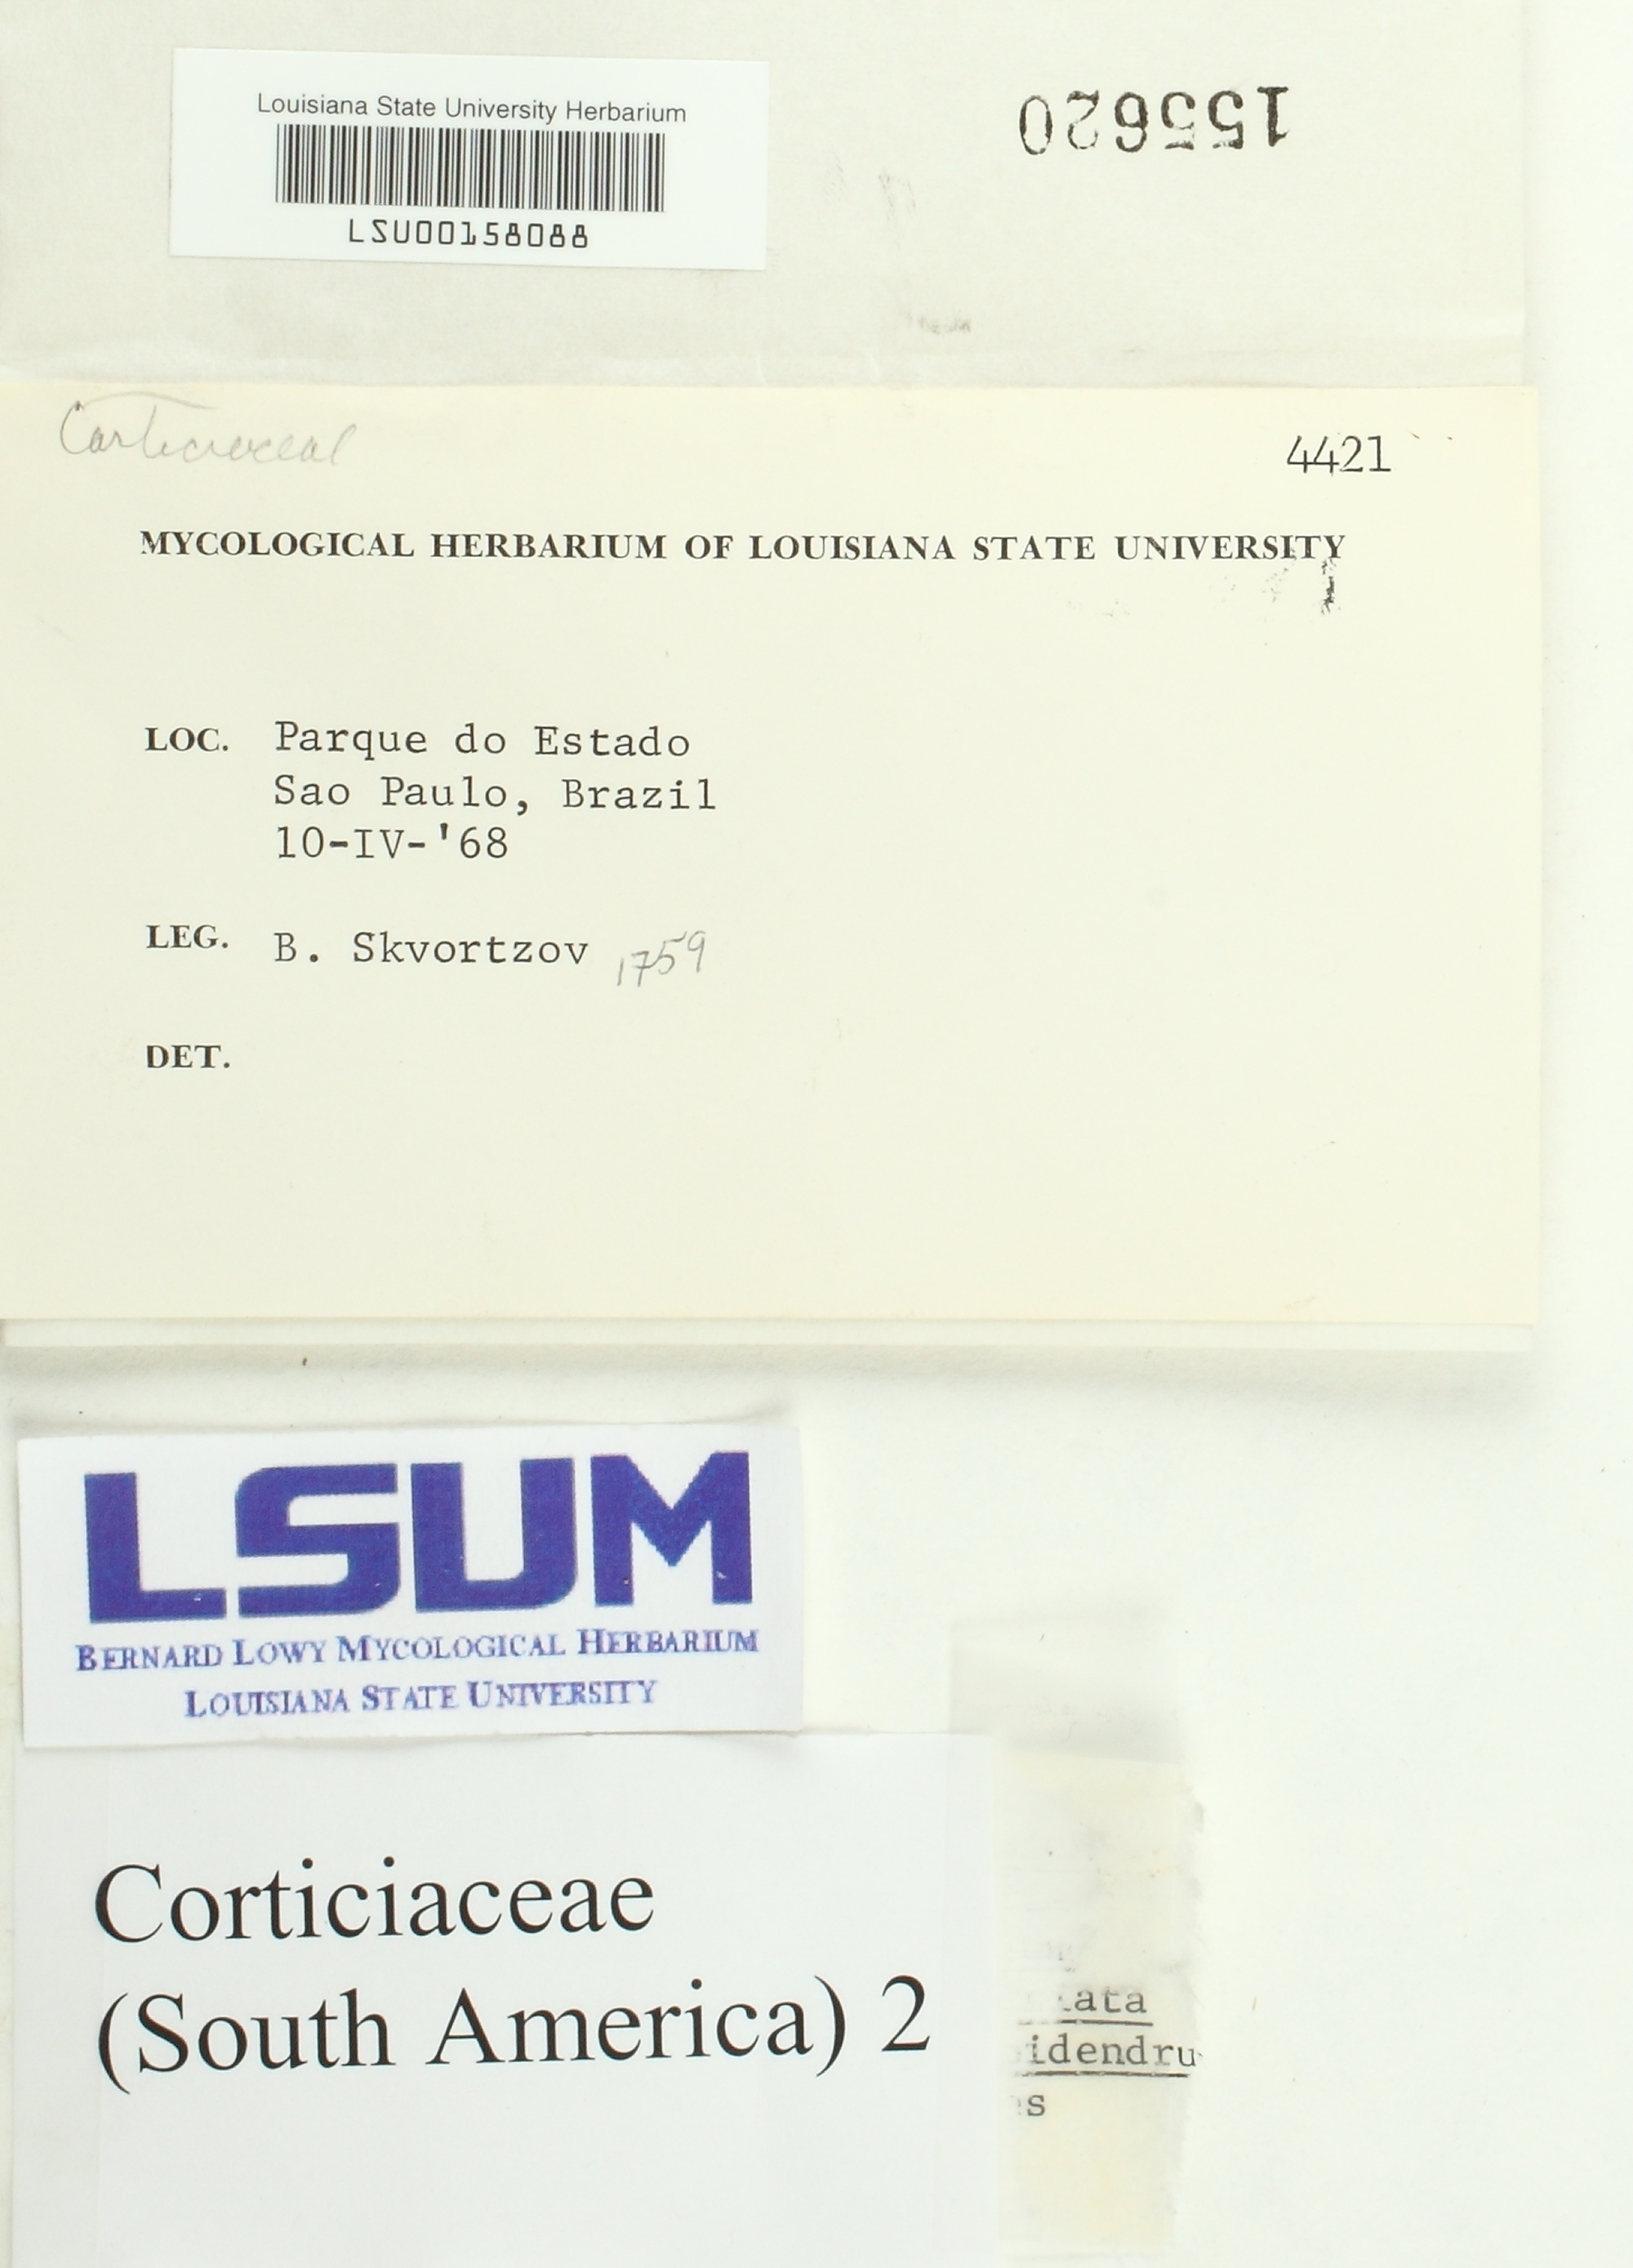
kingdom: Fungi
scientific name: Fungi
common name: Fungi
